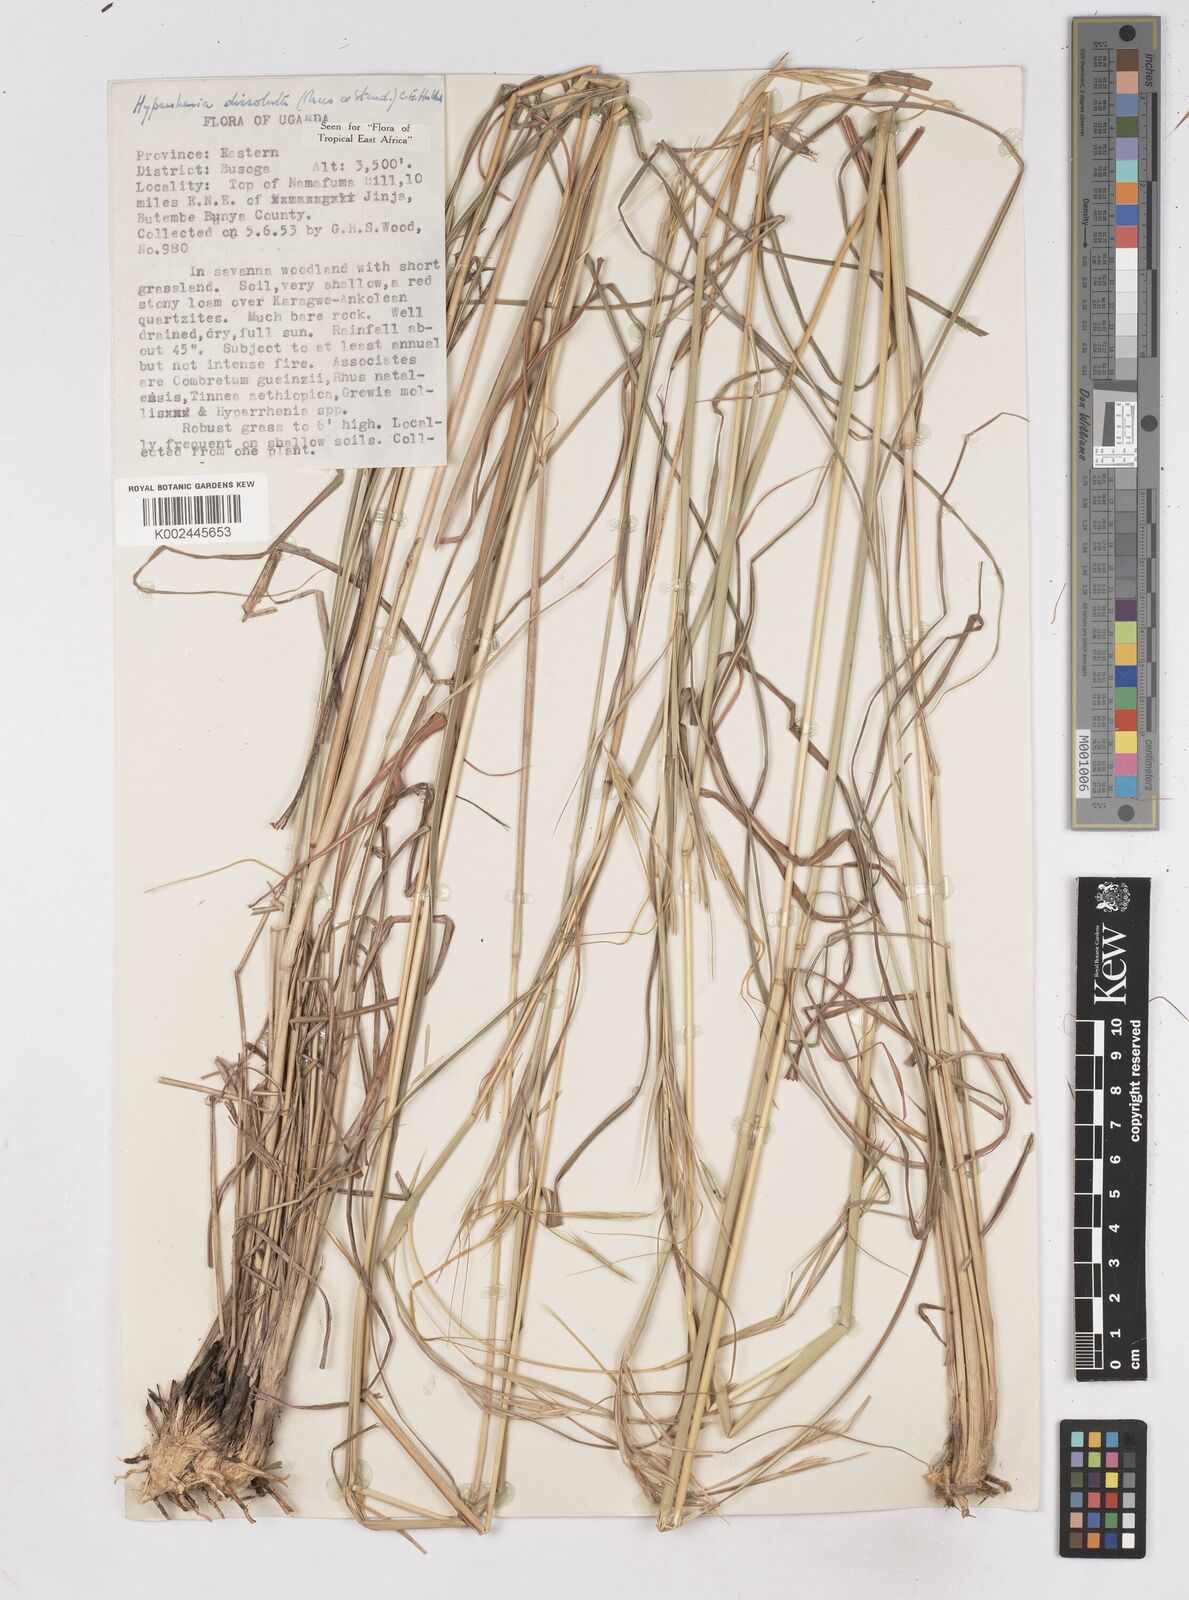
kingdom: Plantae
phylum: Tracheophyta
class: Liliopsida
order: Poales
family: Poaceae
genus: Hyperthelia
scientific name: Hyperthelia dissoluta
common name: Yellow thatching grass
